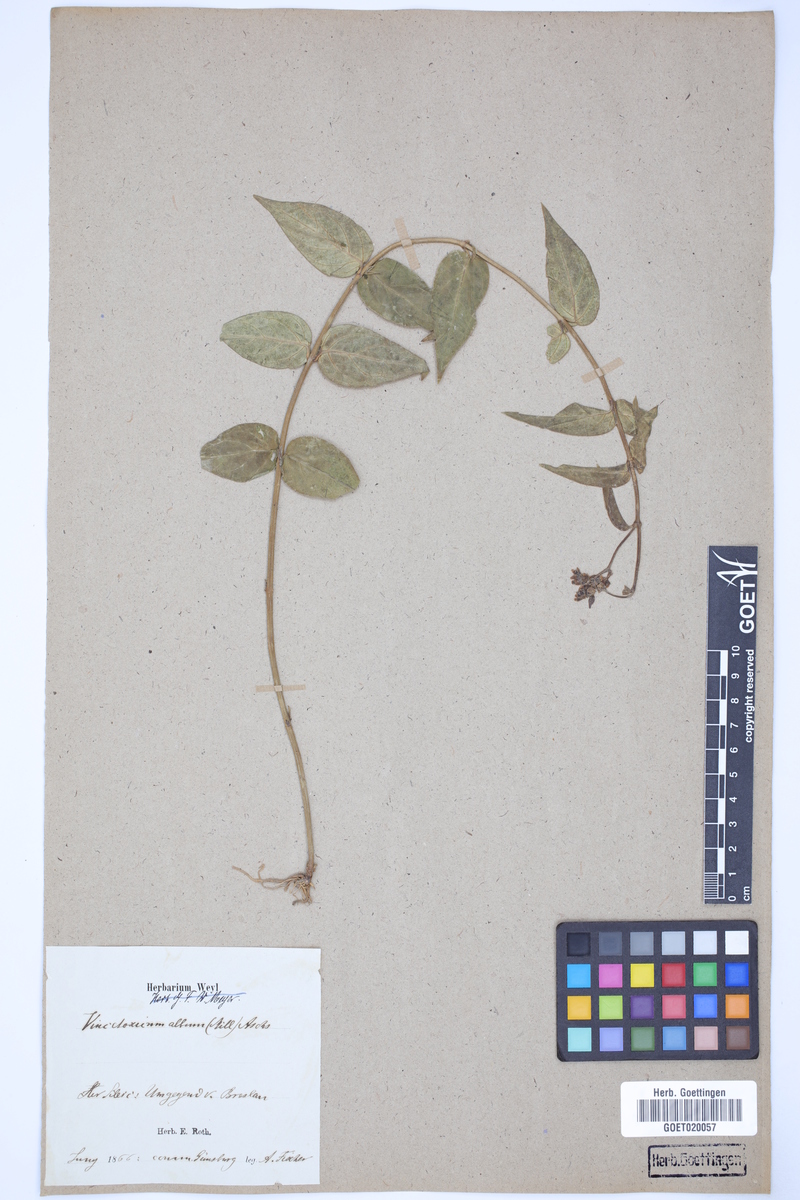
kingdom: Plantae
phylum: Tracheophyta
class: Magnoliopsida
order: Gentianales
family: Apocynaceae
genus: Vincetoxicum
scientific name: Vincetoxicum hirundinaria
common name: White swallowwort
